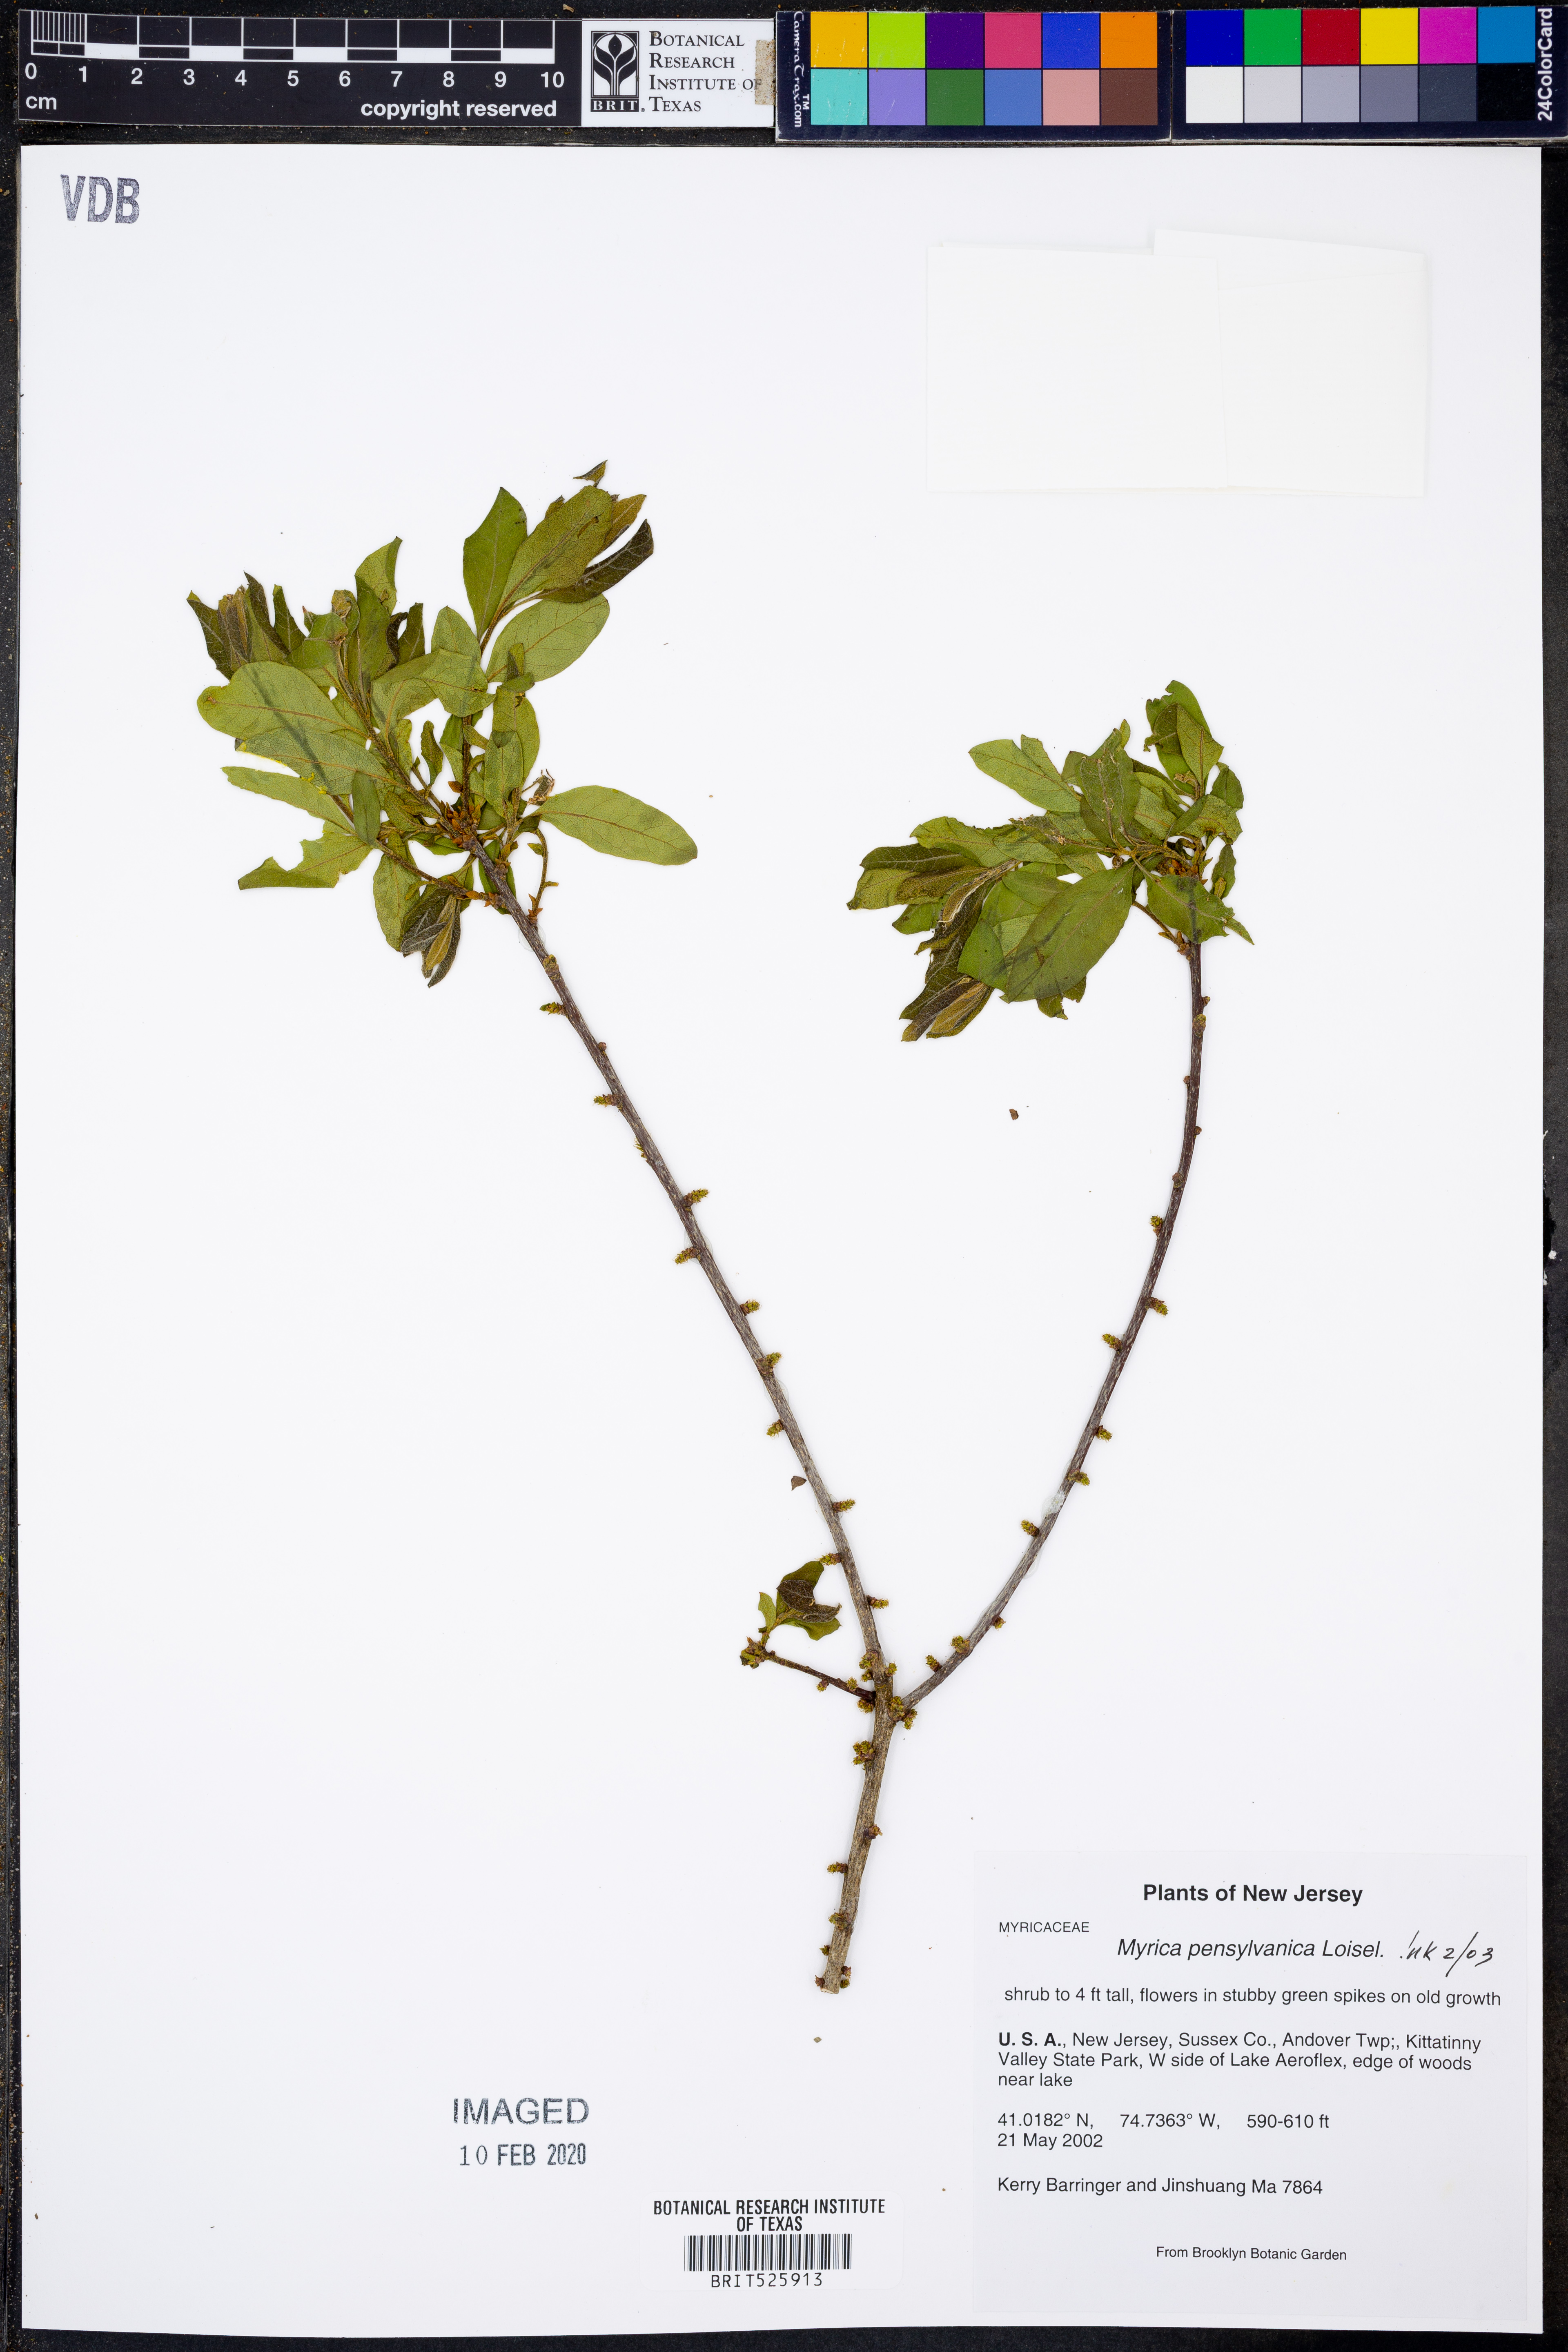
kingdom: Plantae
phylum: Tracheophyta
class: Magnoliopsida
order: Fagales
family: Myricaceae
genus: Morella
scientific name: Morella pensylvanica
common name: Northern bayberry
